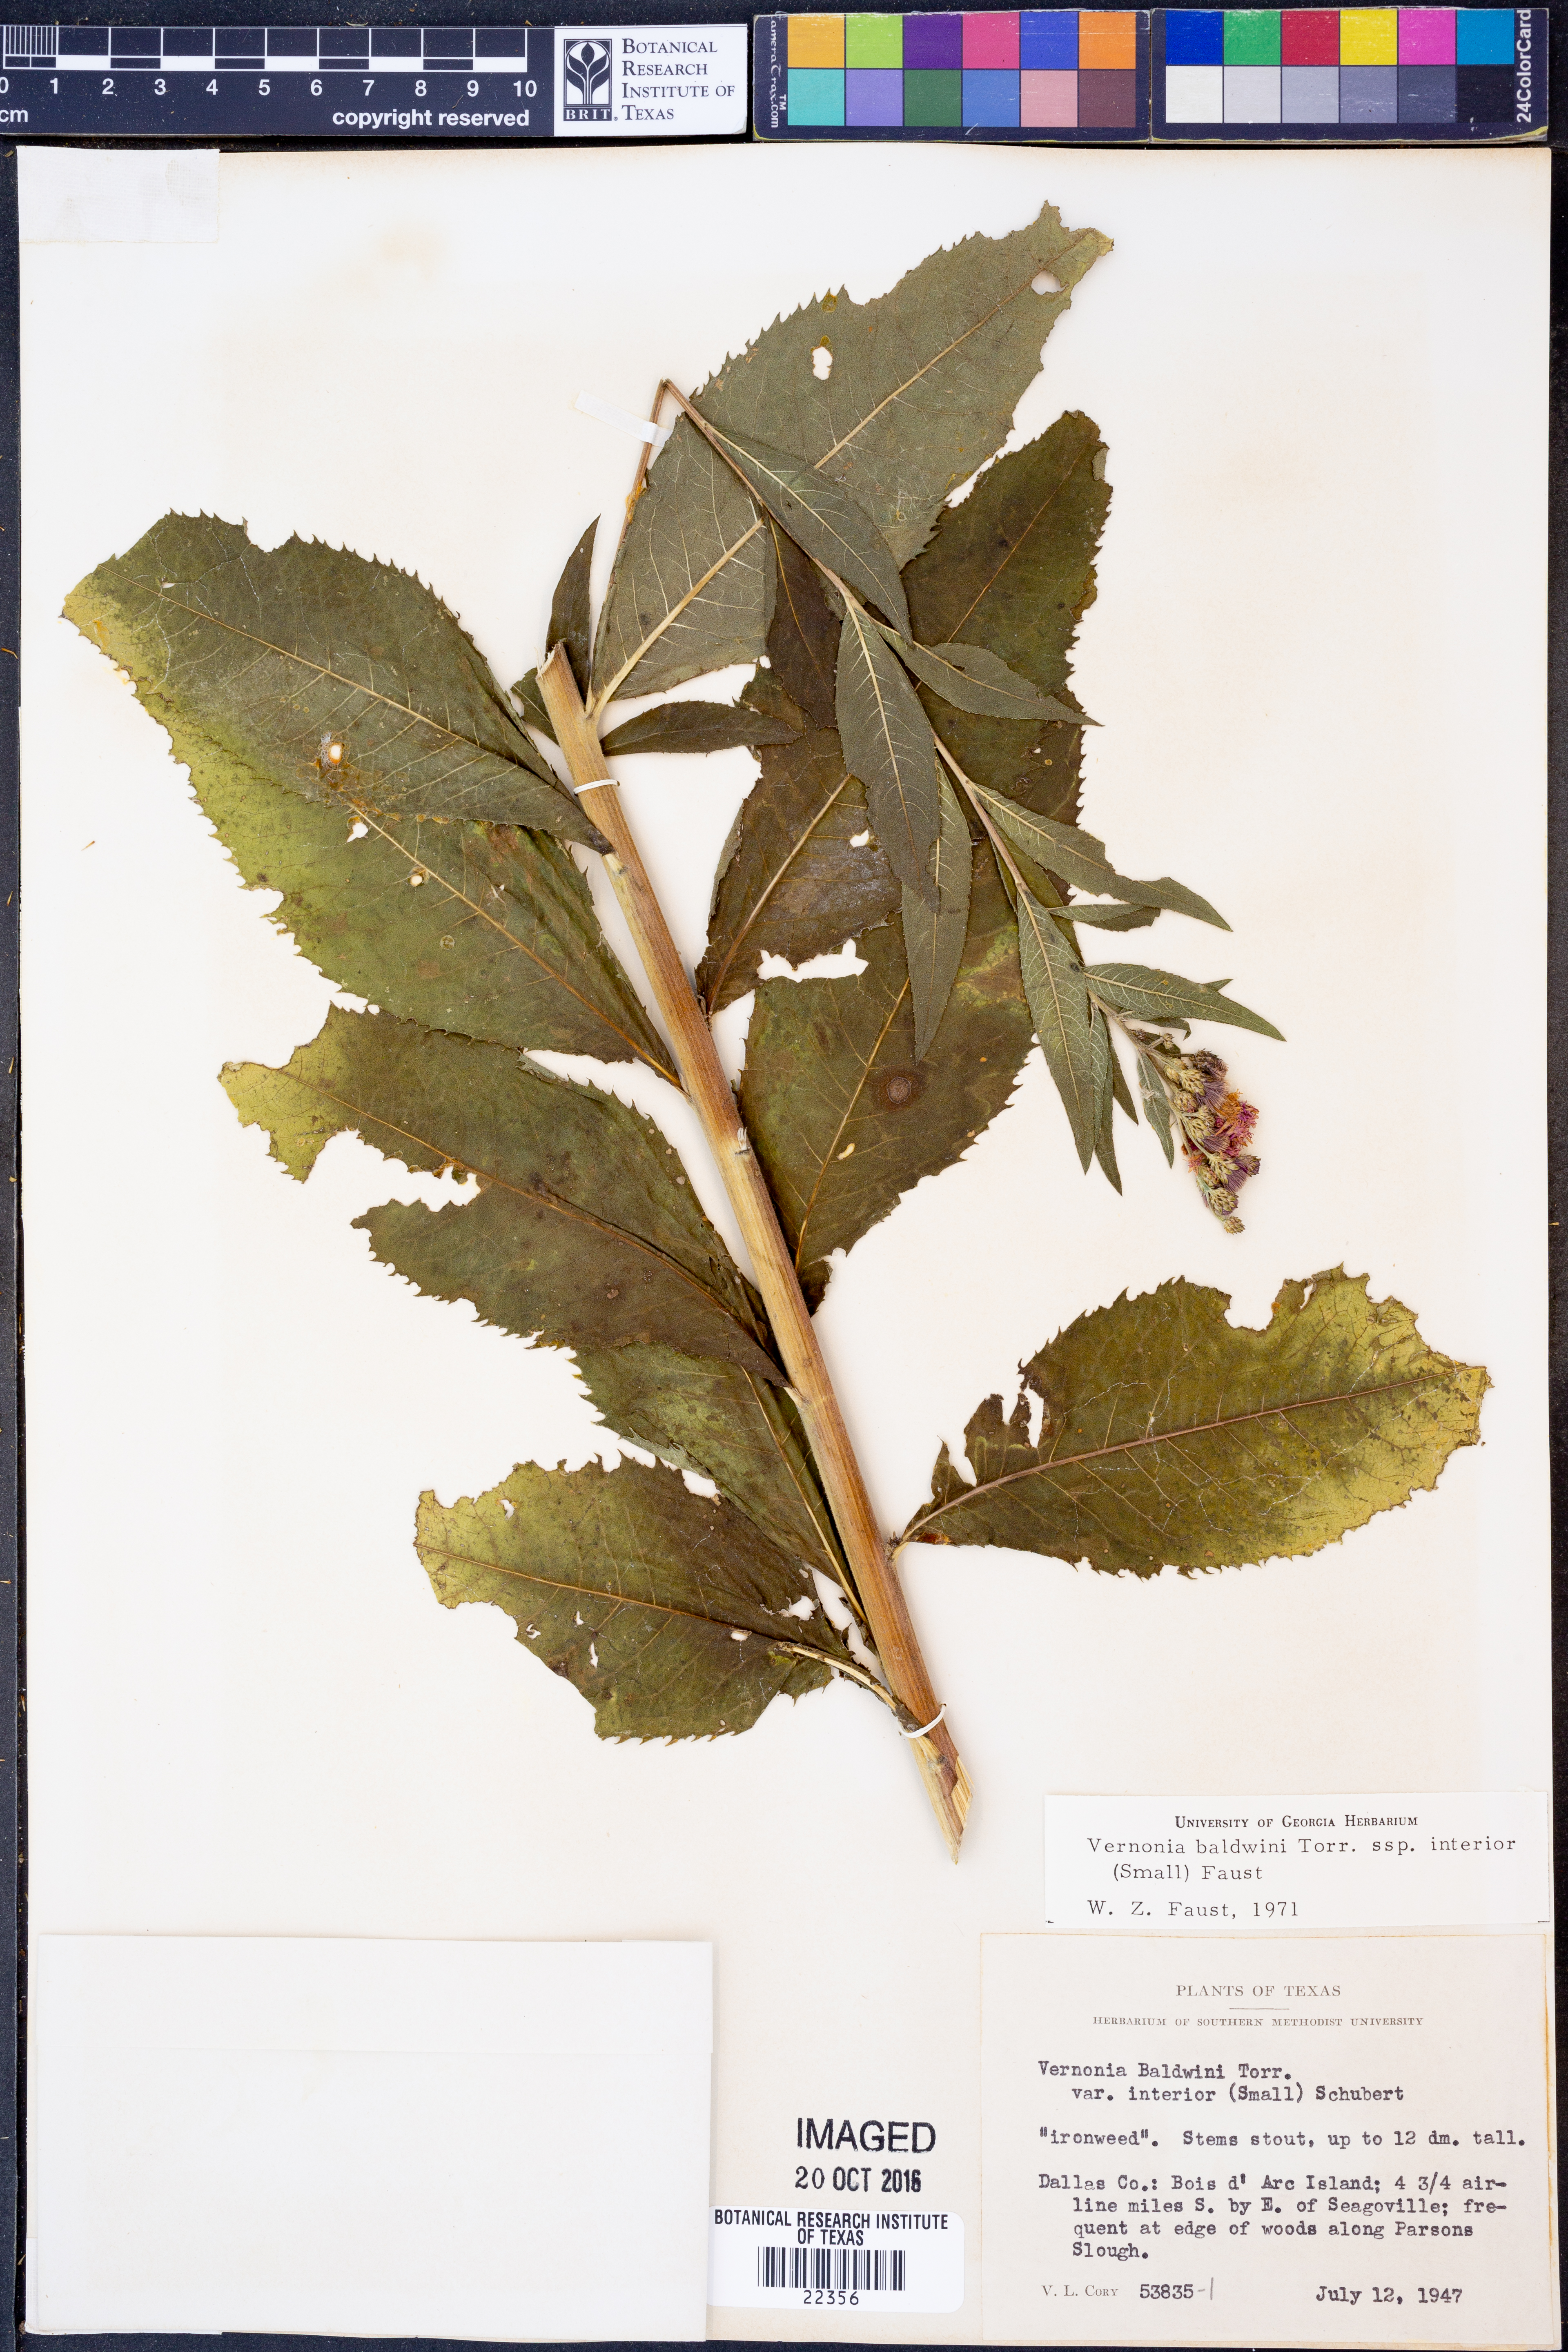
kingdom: Plantae
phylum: Tracheophyta
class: Magnoliopsida
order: Asterales
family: Asteraceae
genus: Vernonia
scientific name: Vernonia baldwinii
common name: Western ironweed
